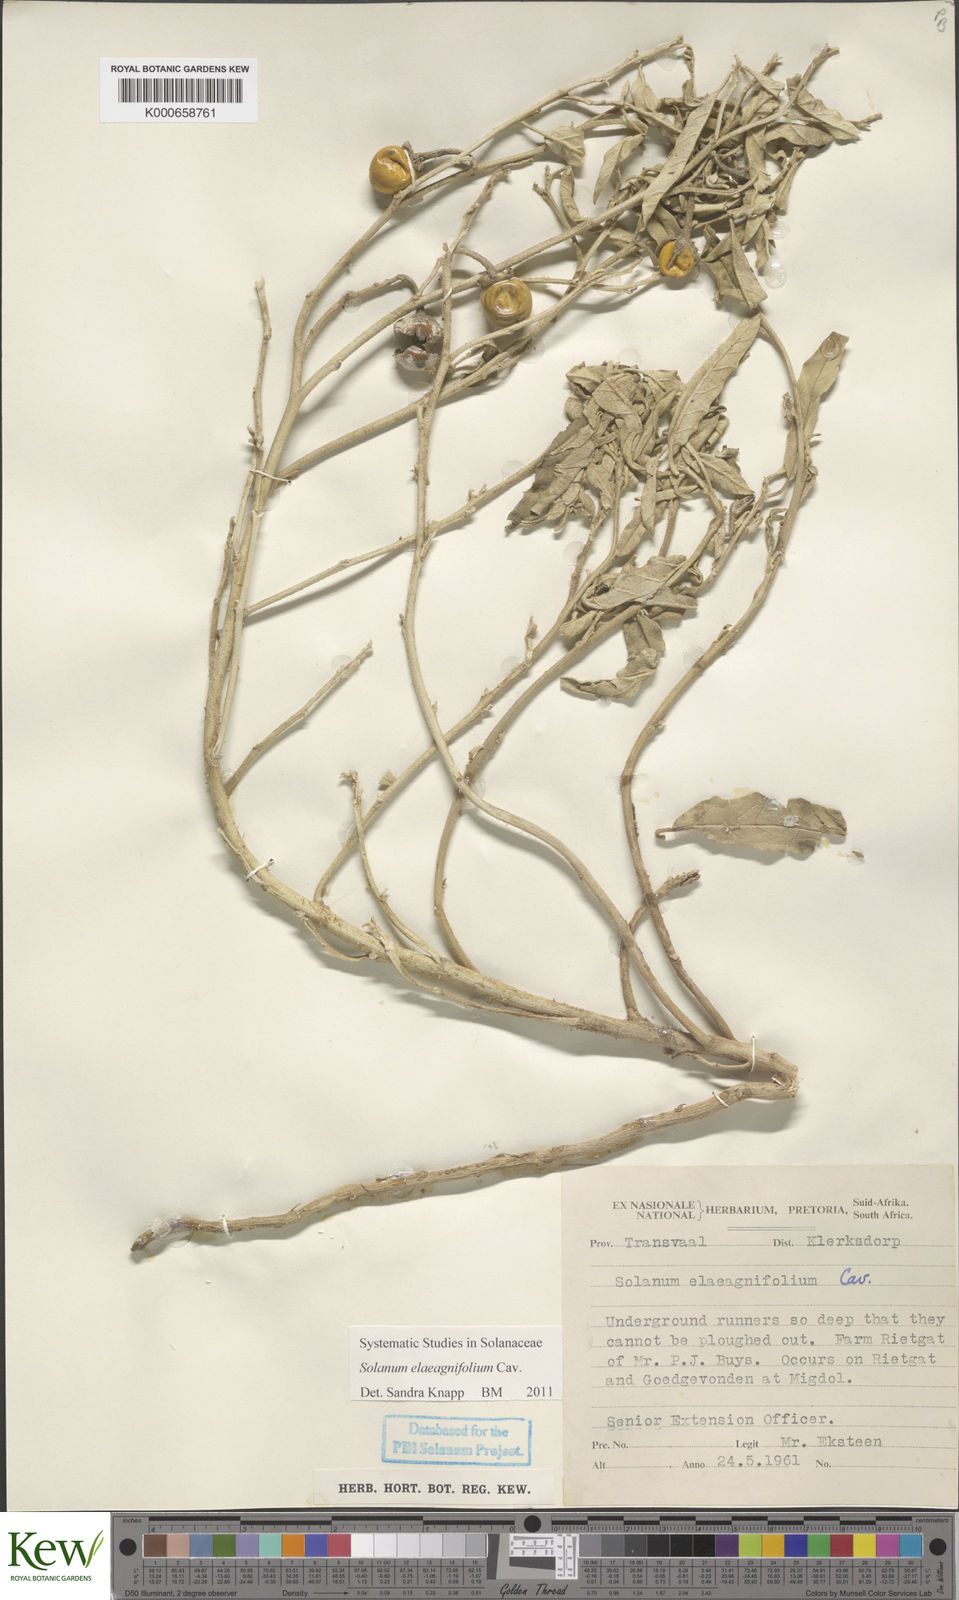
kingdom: Plantae
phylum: Tracheophyta
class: Magnoliopsida
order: Solanales
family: Solanaceae
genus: Solanum
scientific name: Solanum elaeagnifolium
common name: Silverleaf nightshade
